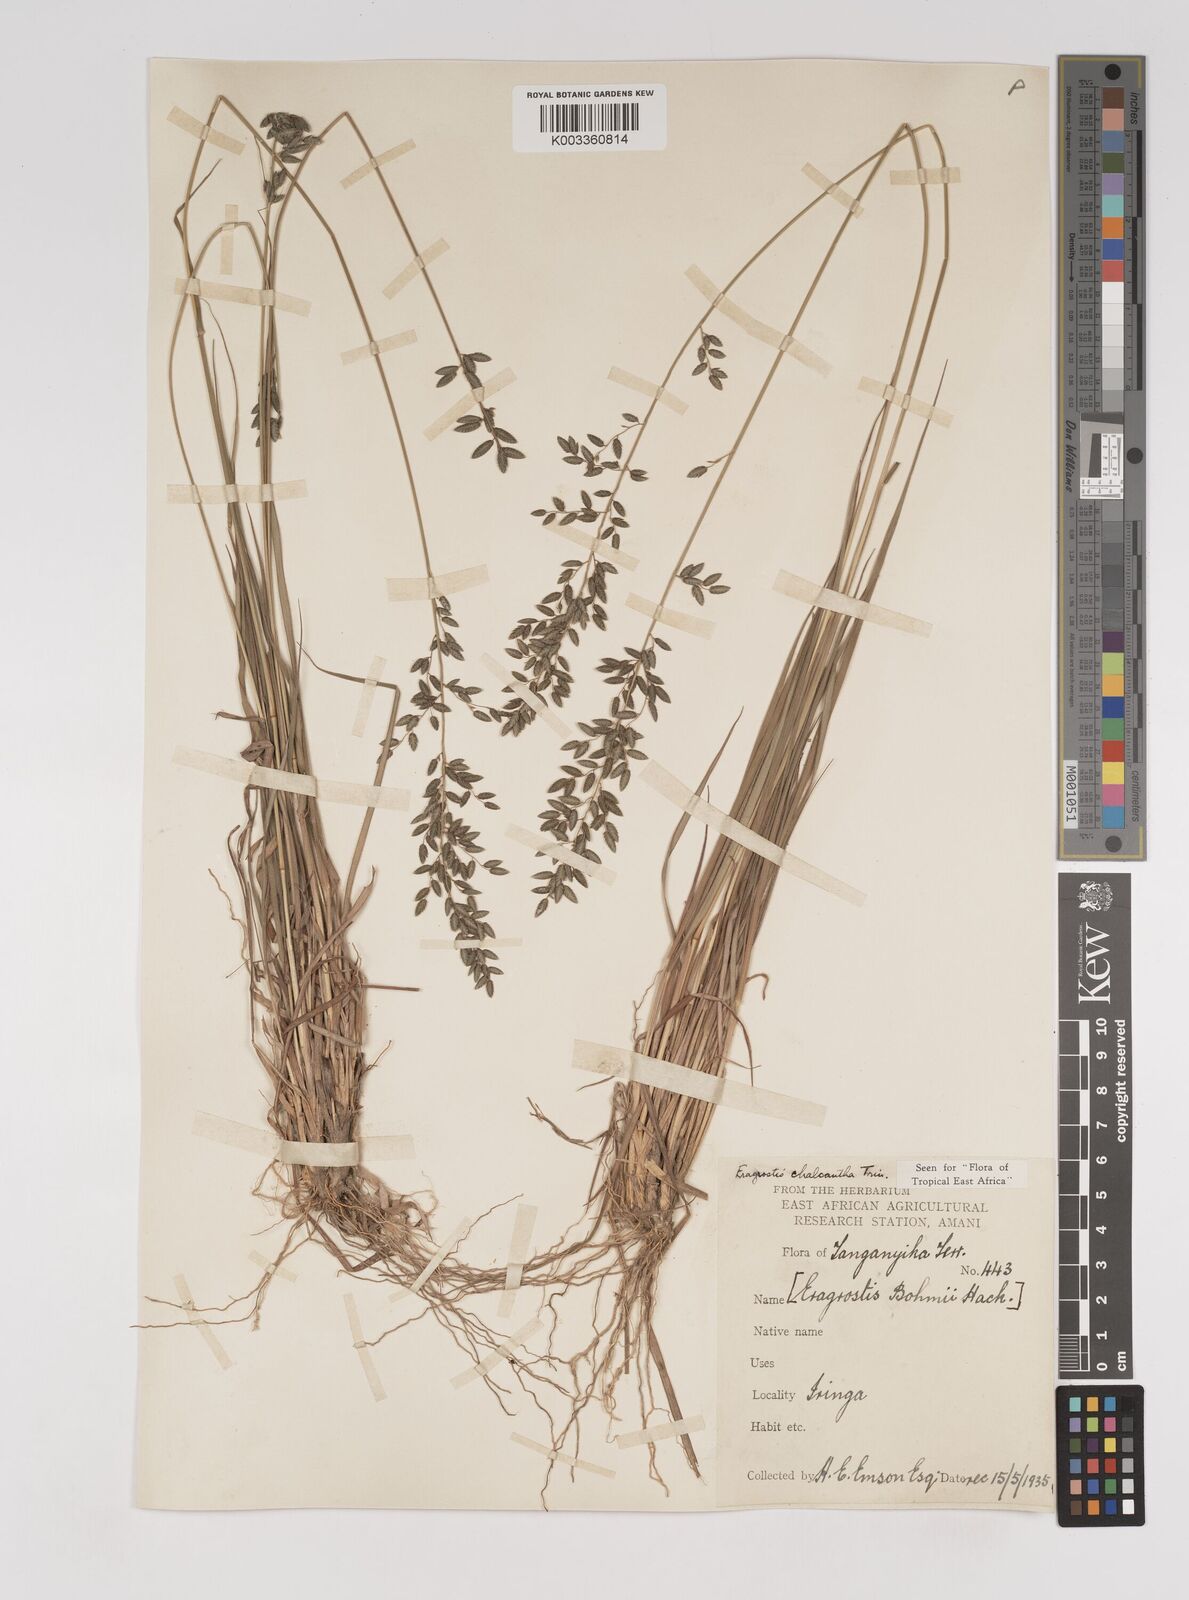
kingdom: Plantae
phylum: Tracheophyta
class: Liliopsida
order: Poales
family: Poaceae
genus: Eragrostis
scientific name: Eragrostis racemosa
